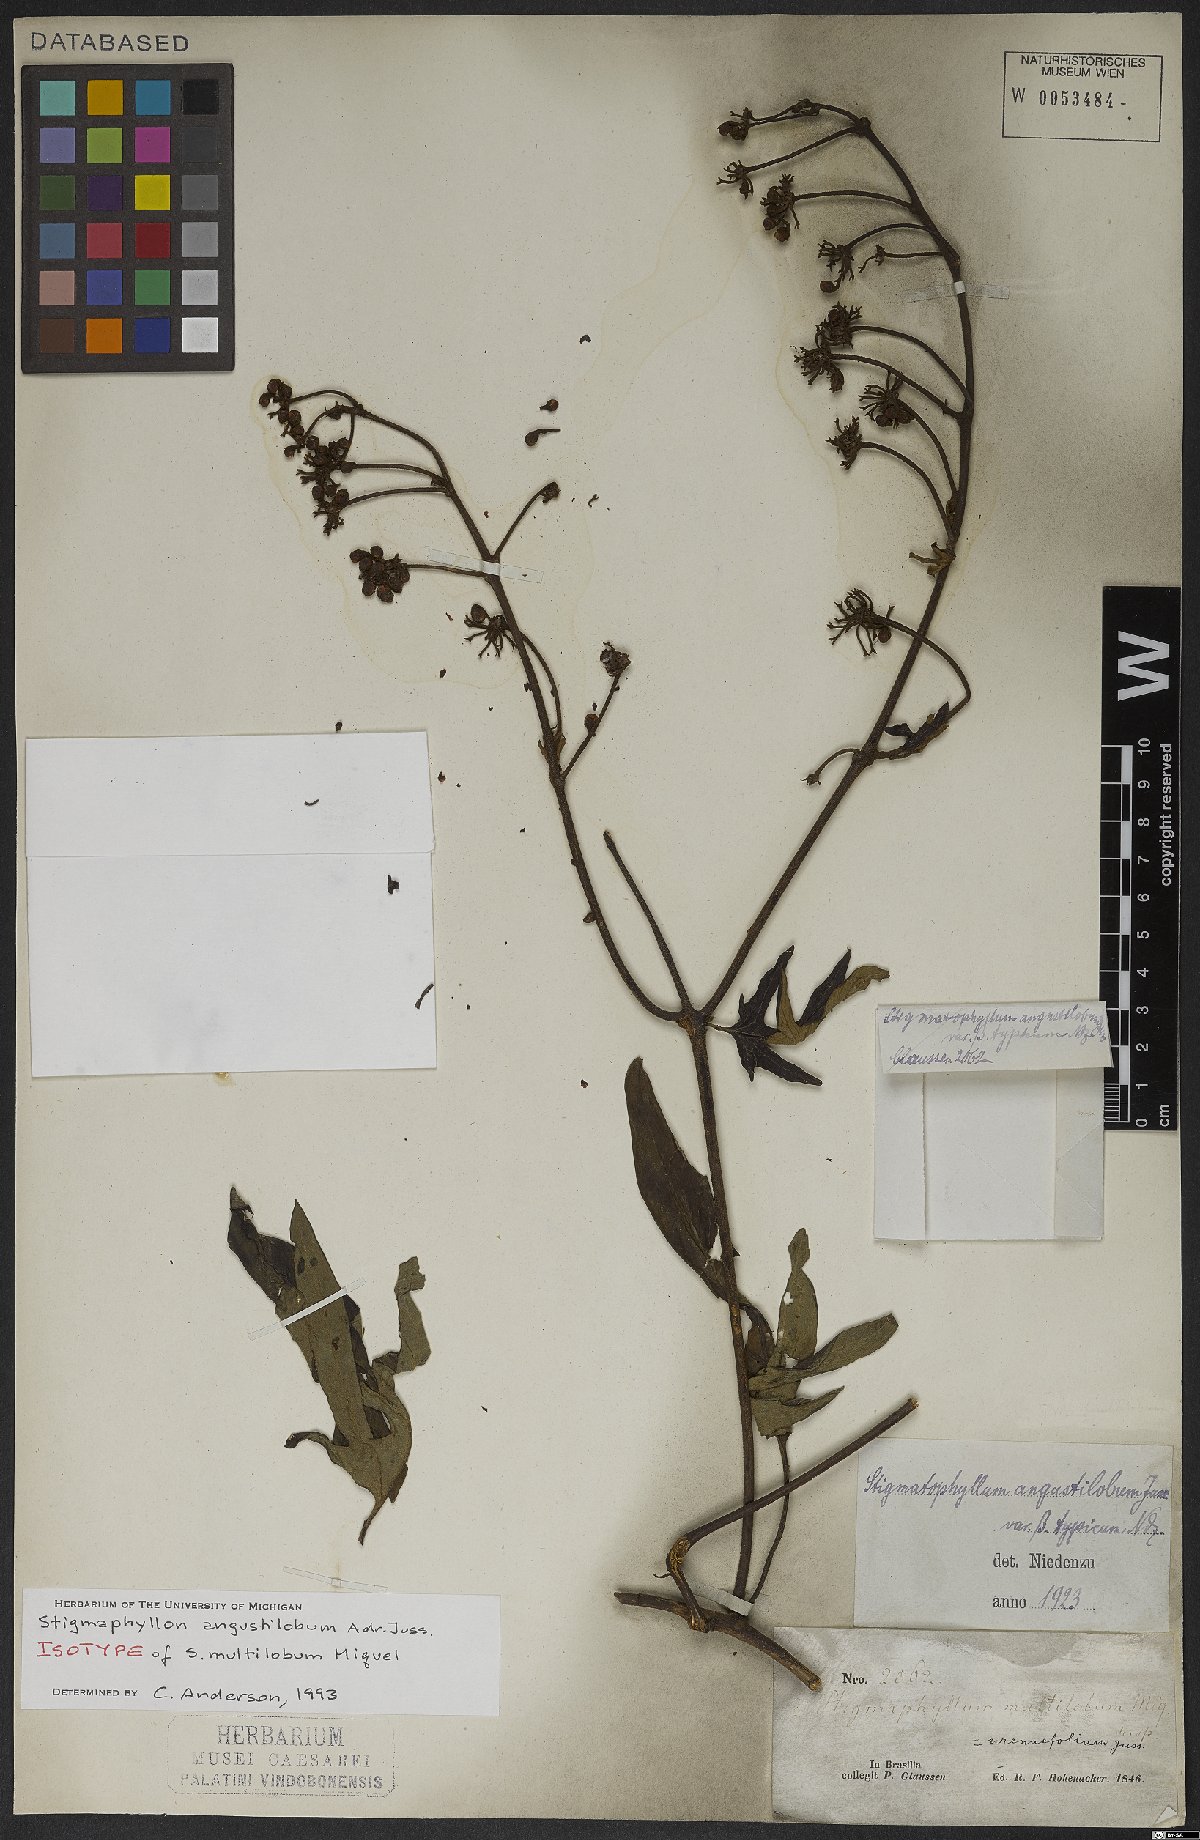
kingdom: Plantae
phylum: Tracheophyta
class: Magnoliopsida
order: Malpighiales
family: Malpighiaceae
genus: Stigmaphyllon
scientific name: Stigmaphyllon angustilobum
